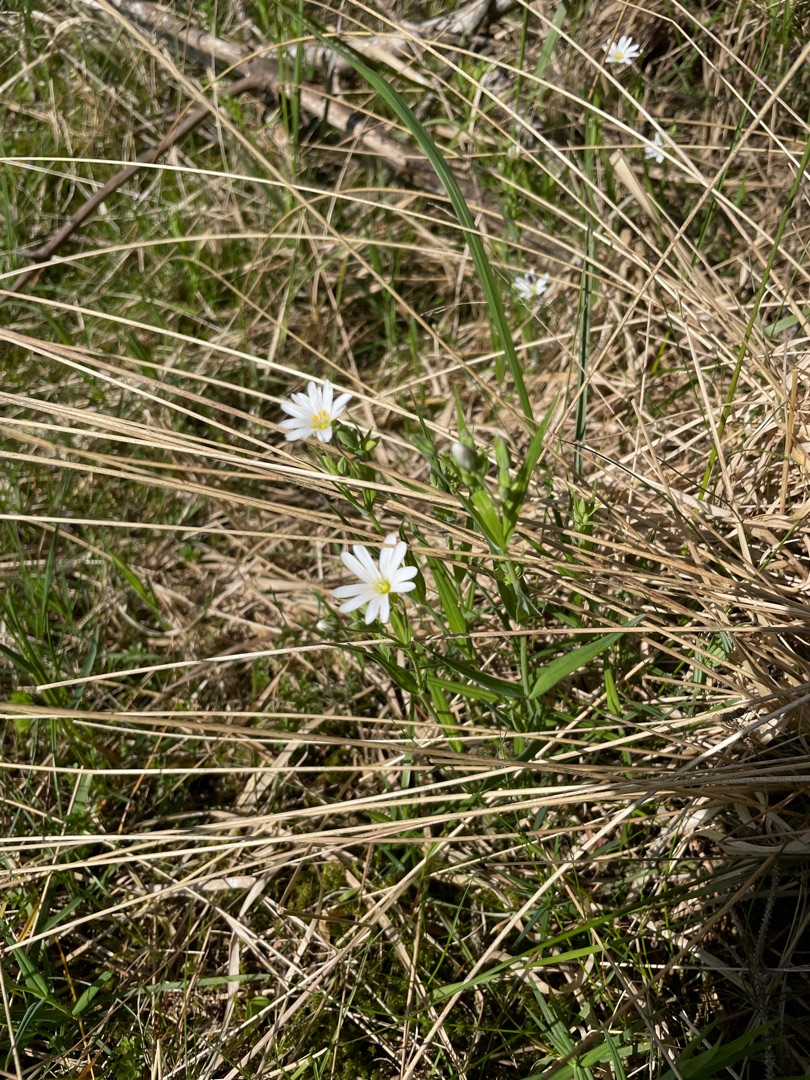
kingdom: Plantae
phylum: Tracheophyta
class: Magnoliopsida
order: Caryophyllales
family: Caryophyllaceae
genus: Rabelera
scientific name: Rabelera holostea
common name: Stor fladstjerne
